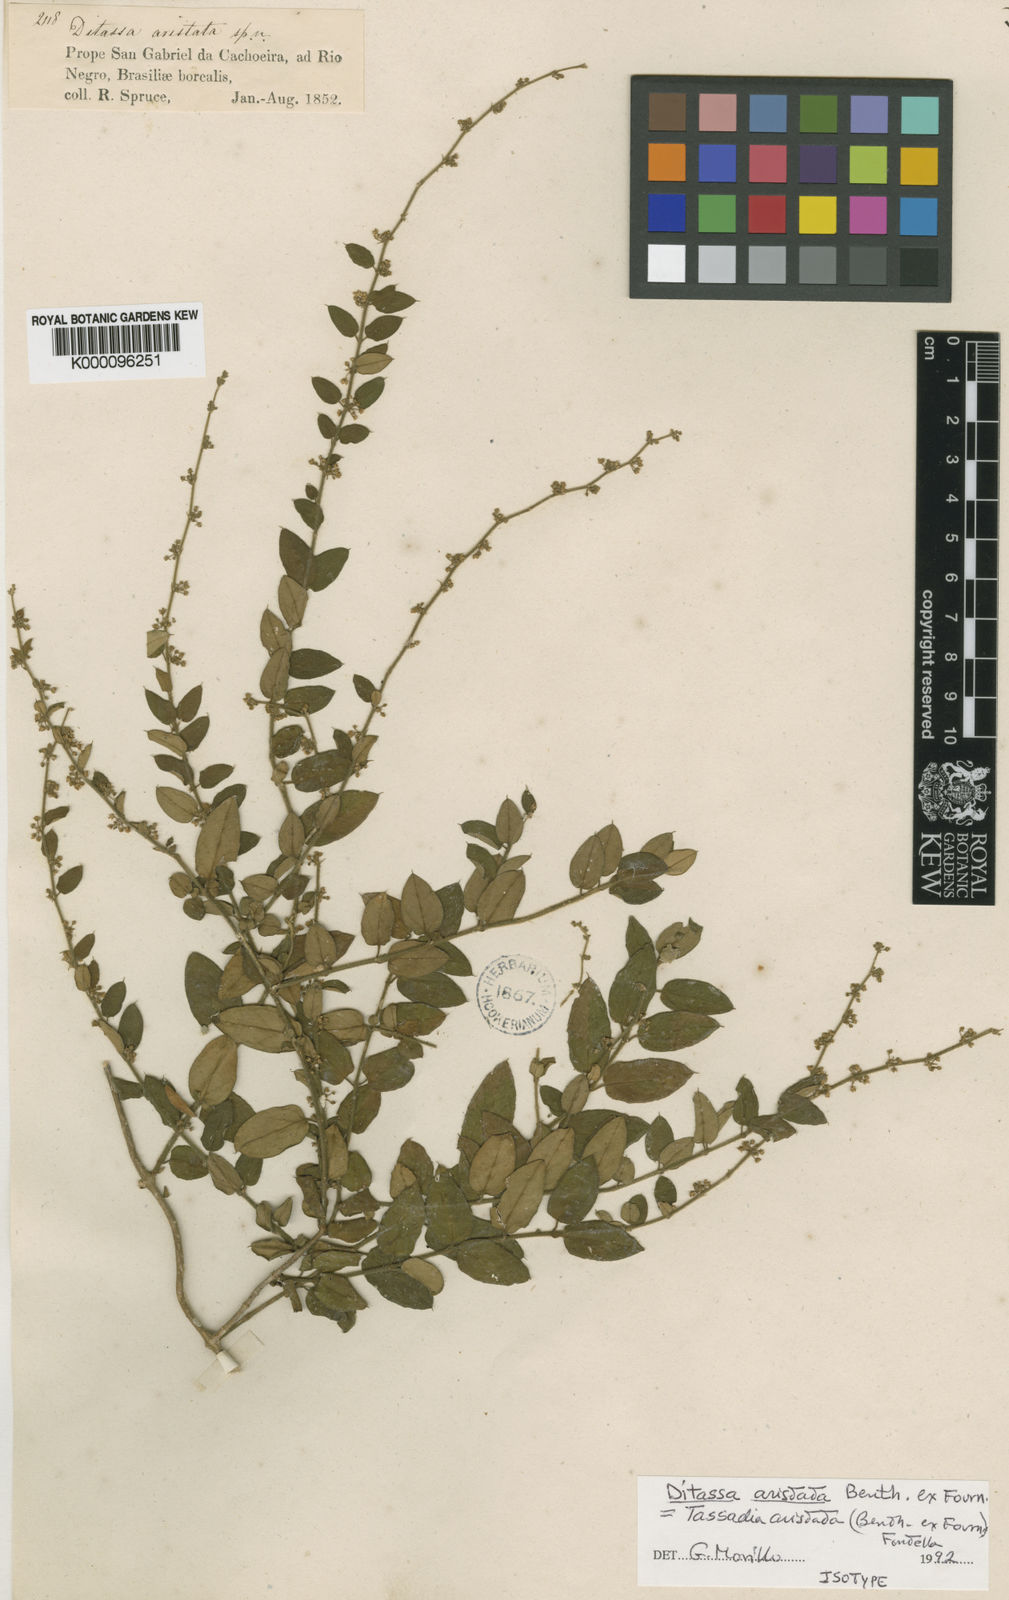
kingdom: Plantae
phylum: Tracheophyta
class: Magnoliopsida
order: Gentianales
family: Apocynaceae
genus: Tassadia
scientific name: Tassadia aristata
